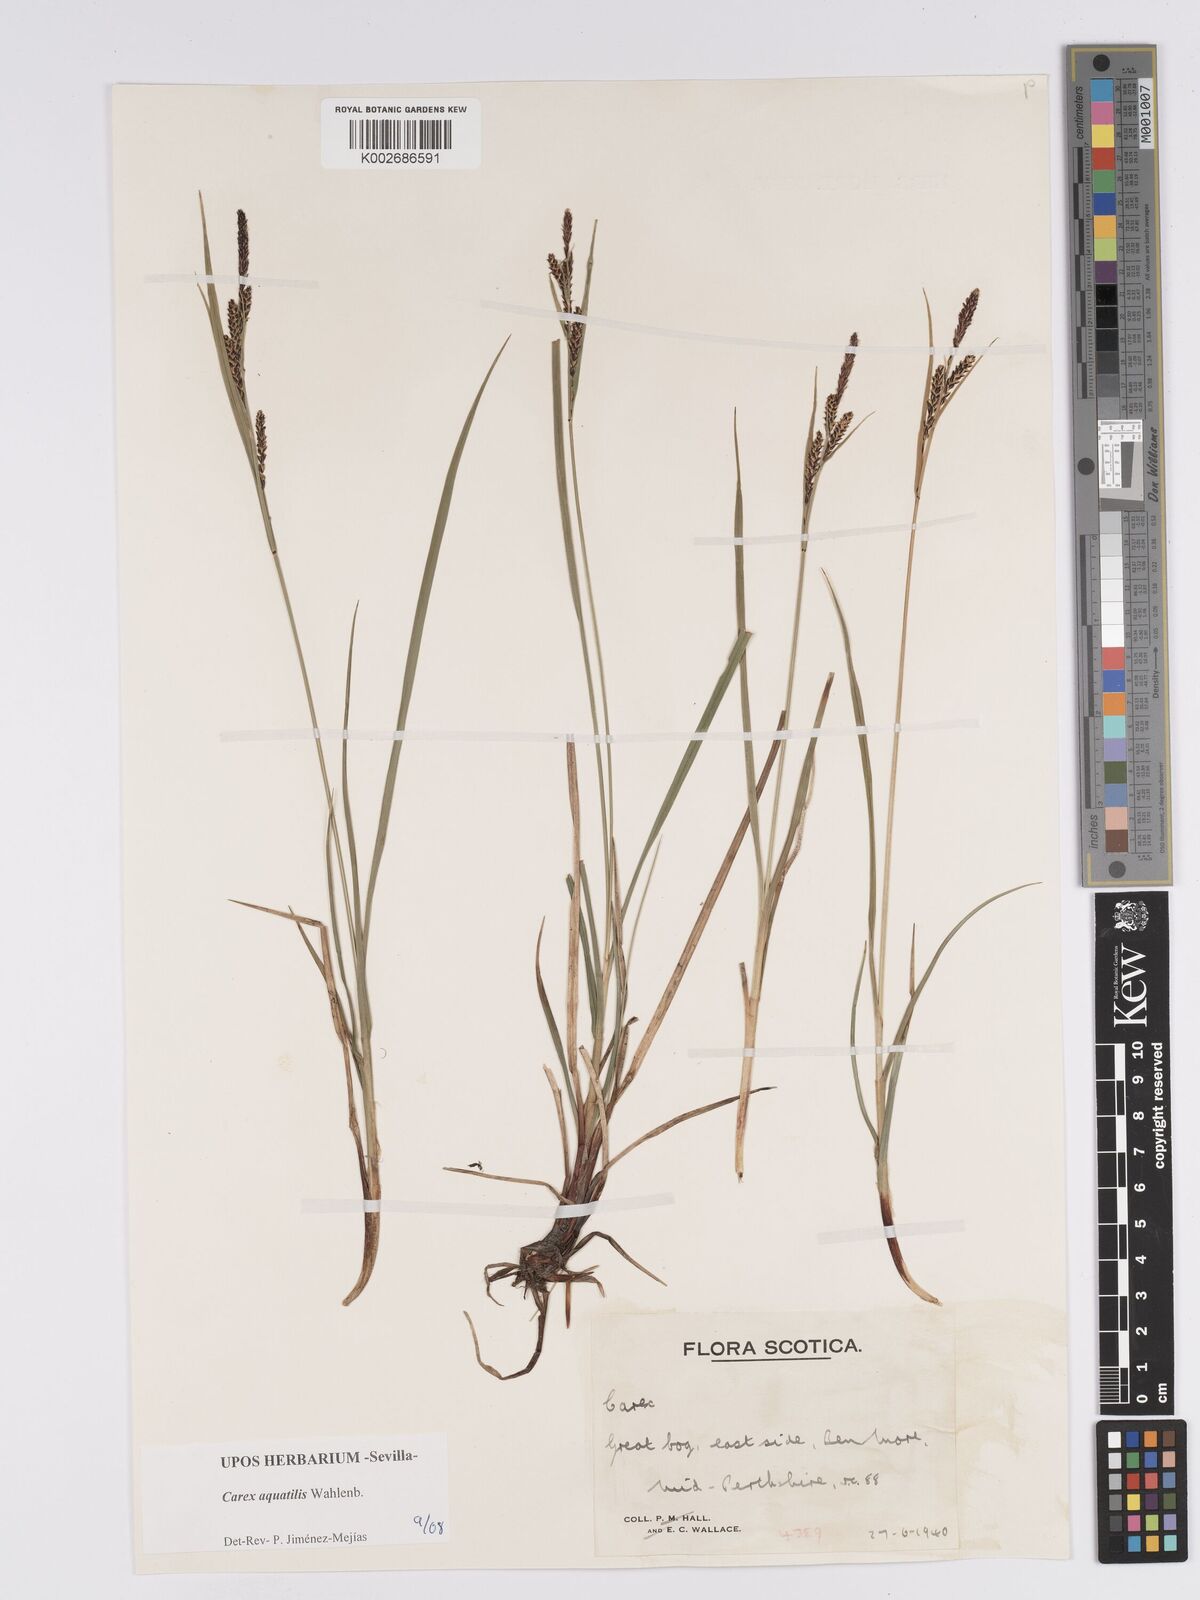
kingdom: Plantae
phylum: Tracheophyta
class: Liliopsida
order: Poales
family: Cyperaceae
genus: Carex
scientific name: Carex aquatilis
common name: Water sedge
